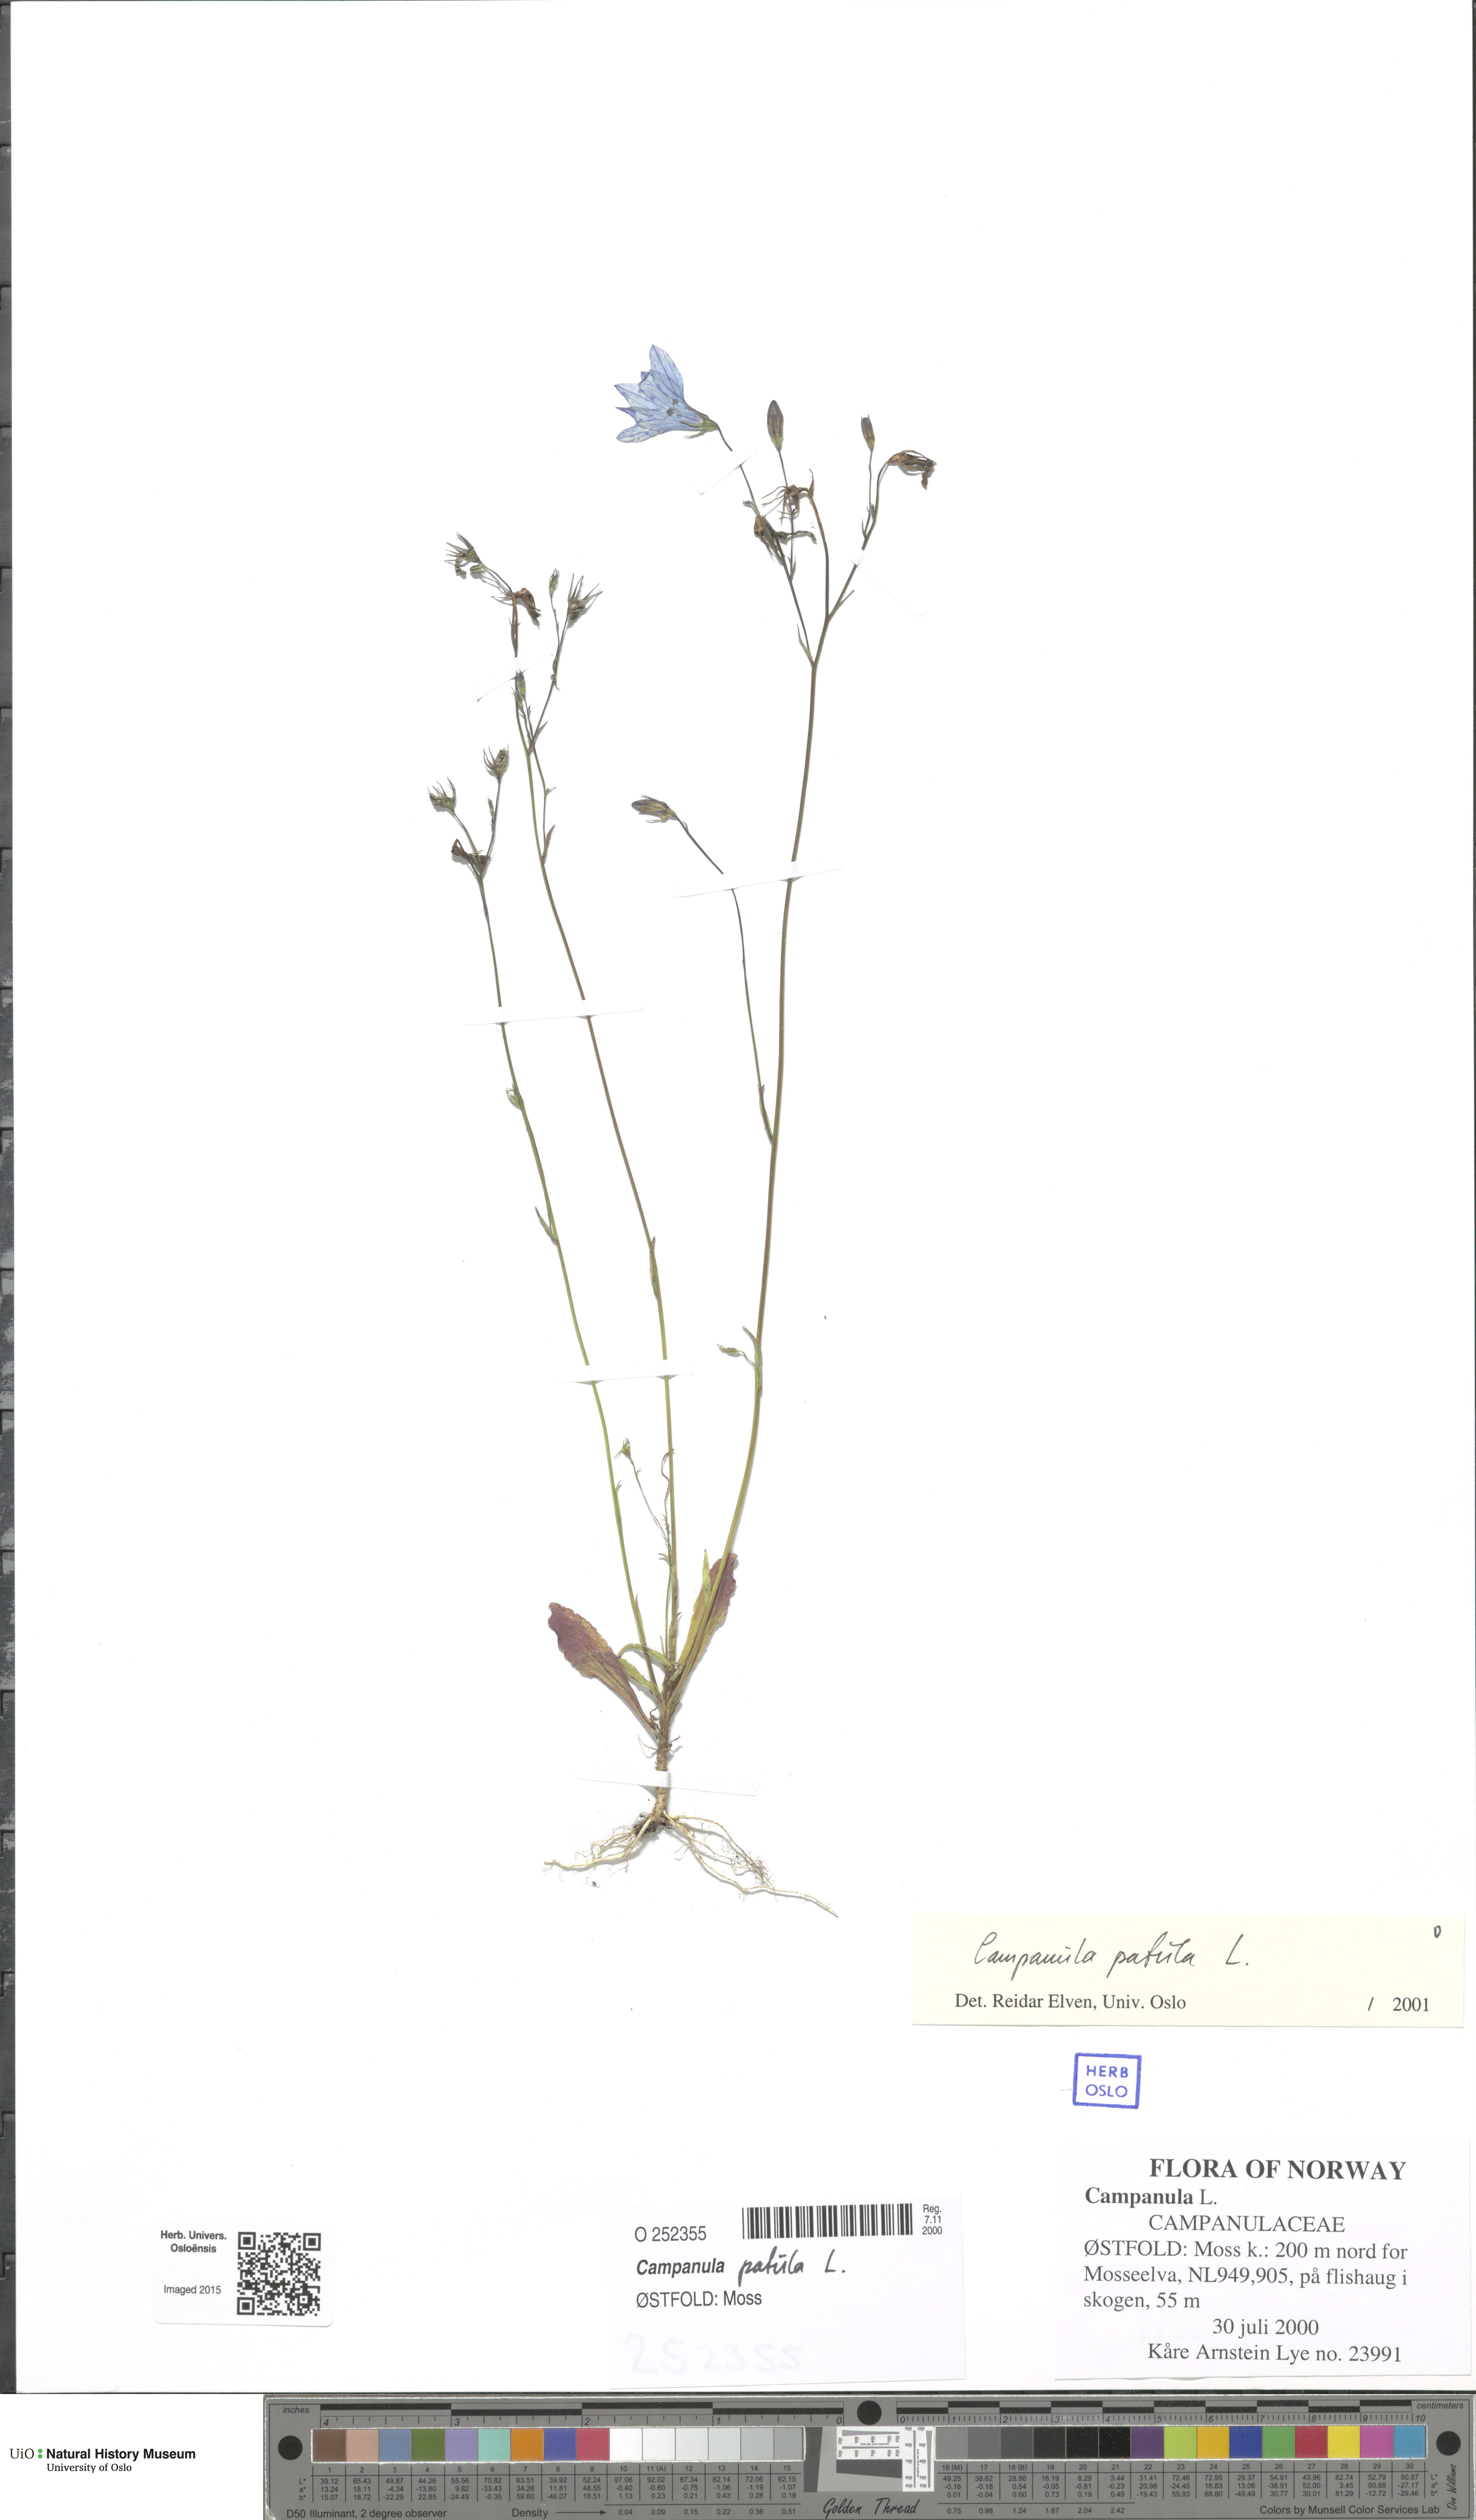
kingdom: Plantae
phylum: Tracheophyta
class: Magnoliopsida
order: Asterales
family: Campanulaceae
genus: Campanula
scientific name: Campanula patula
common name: Spreading bellflower
